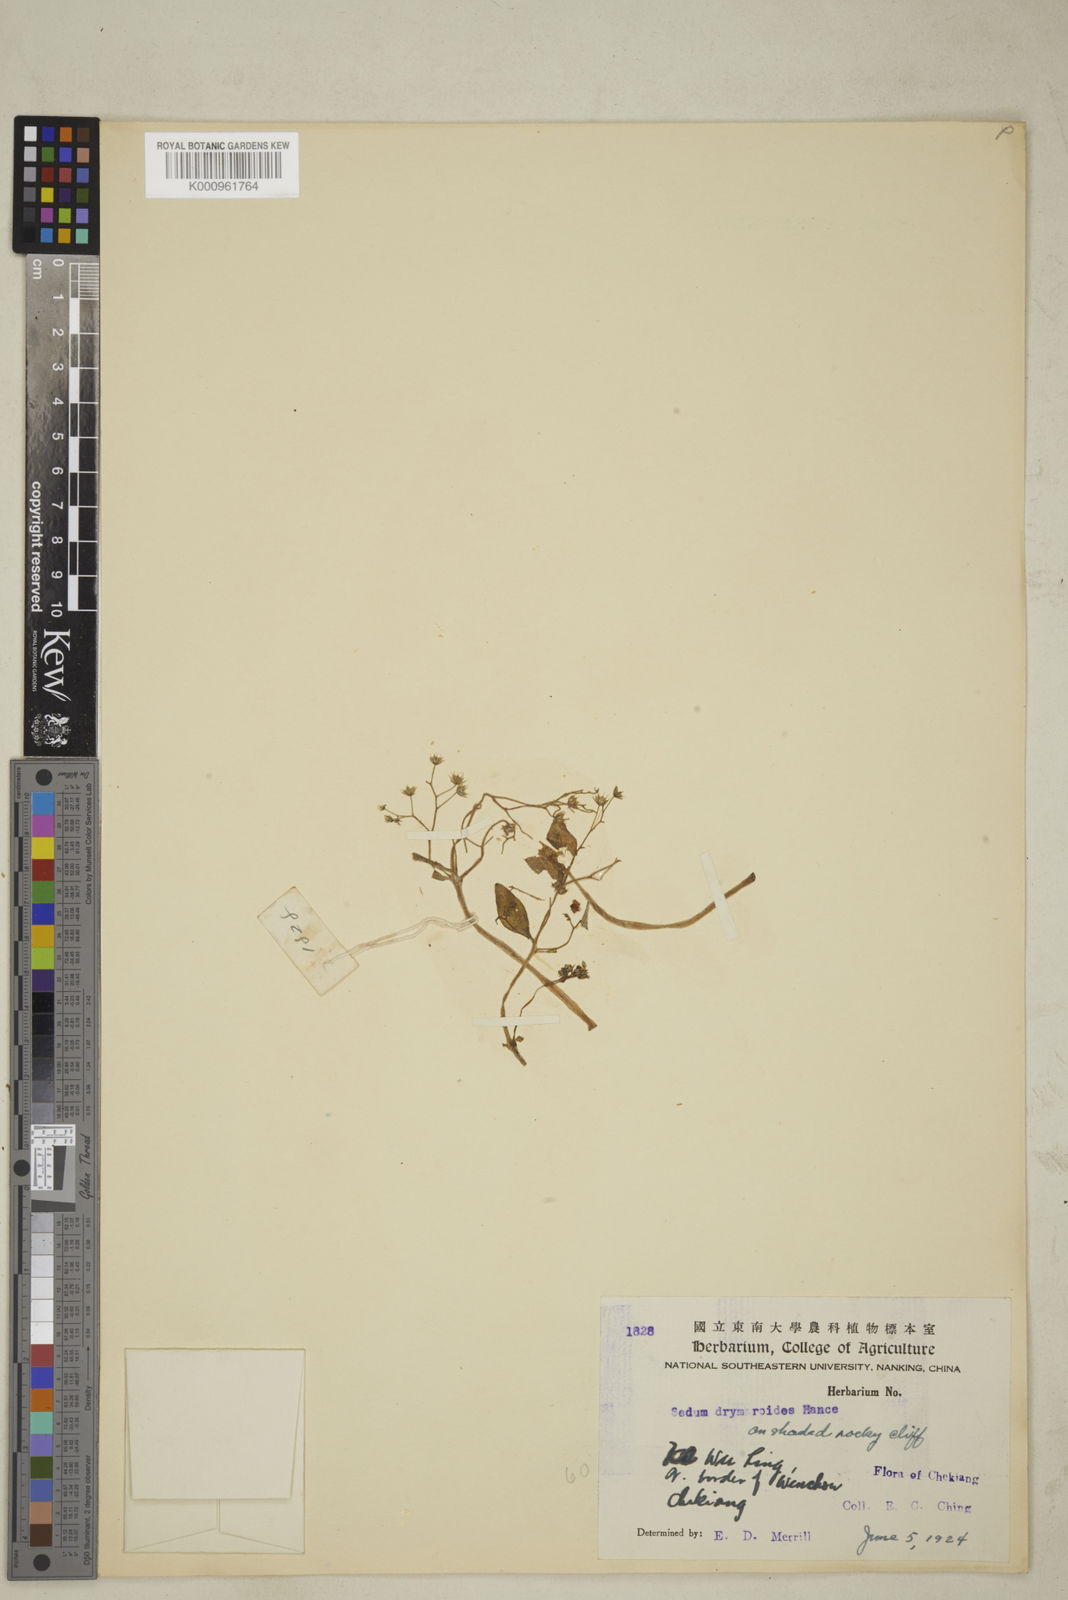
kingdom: Plantae
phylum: Tracheophyta
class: Magnoliopsida
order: Saxifragales
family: Crassulaceae
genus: Sedum
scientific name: Sedum drymarioides
